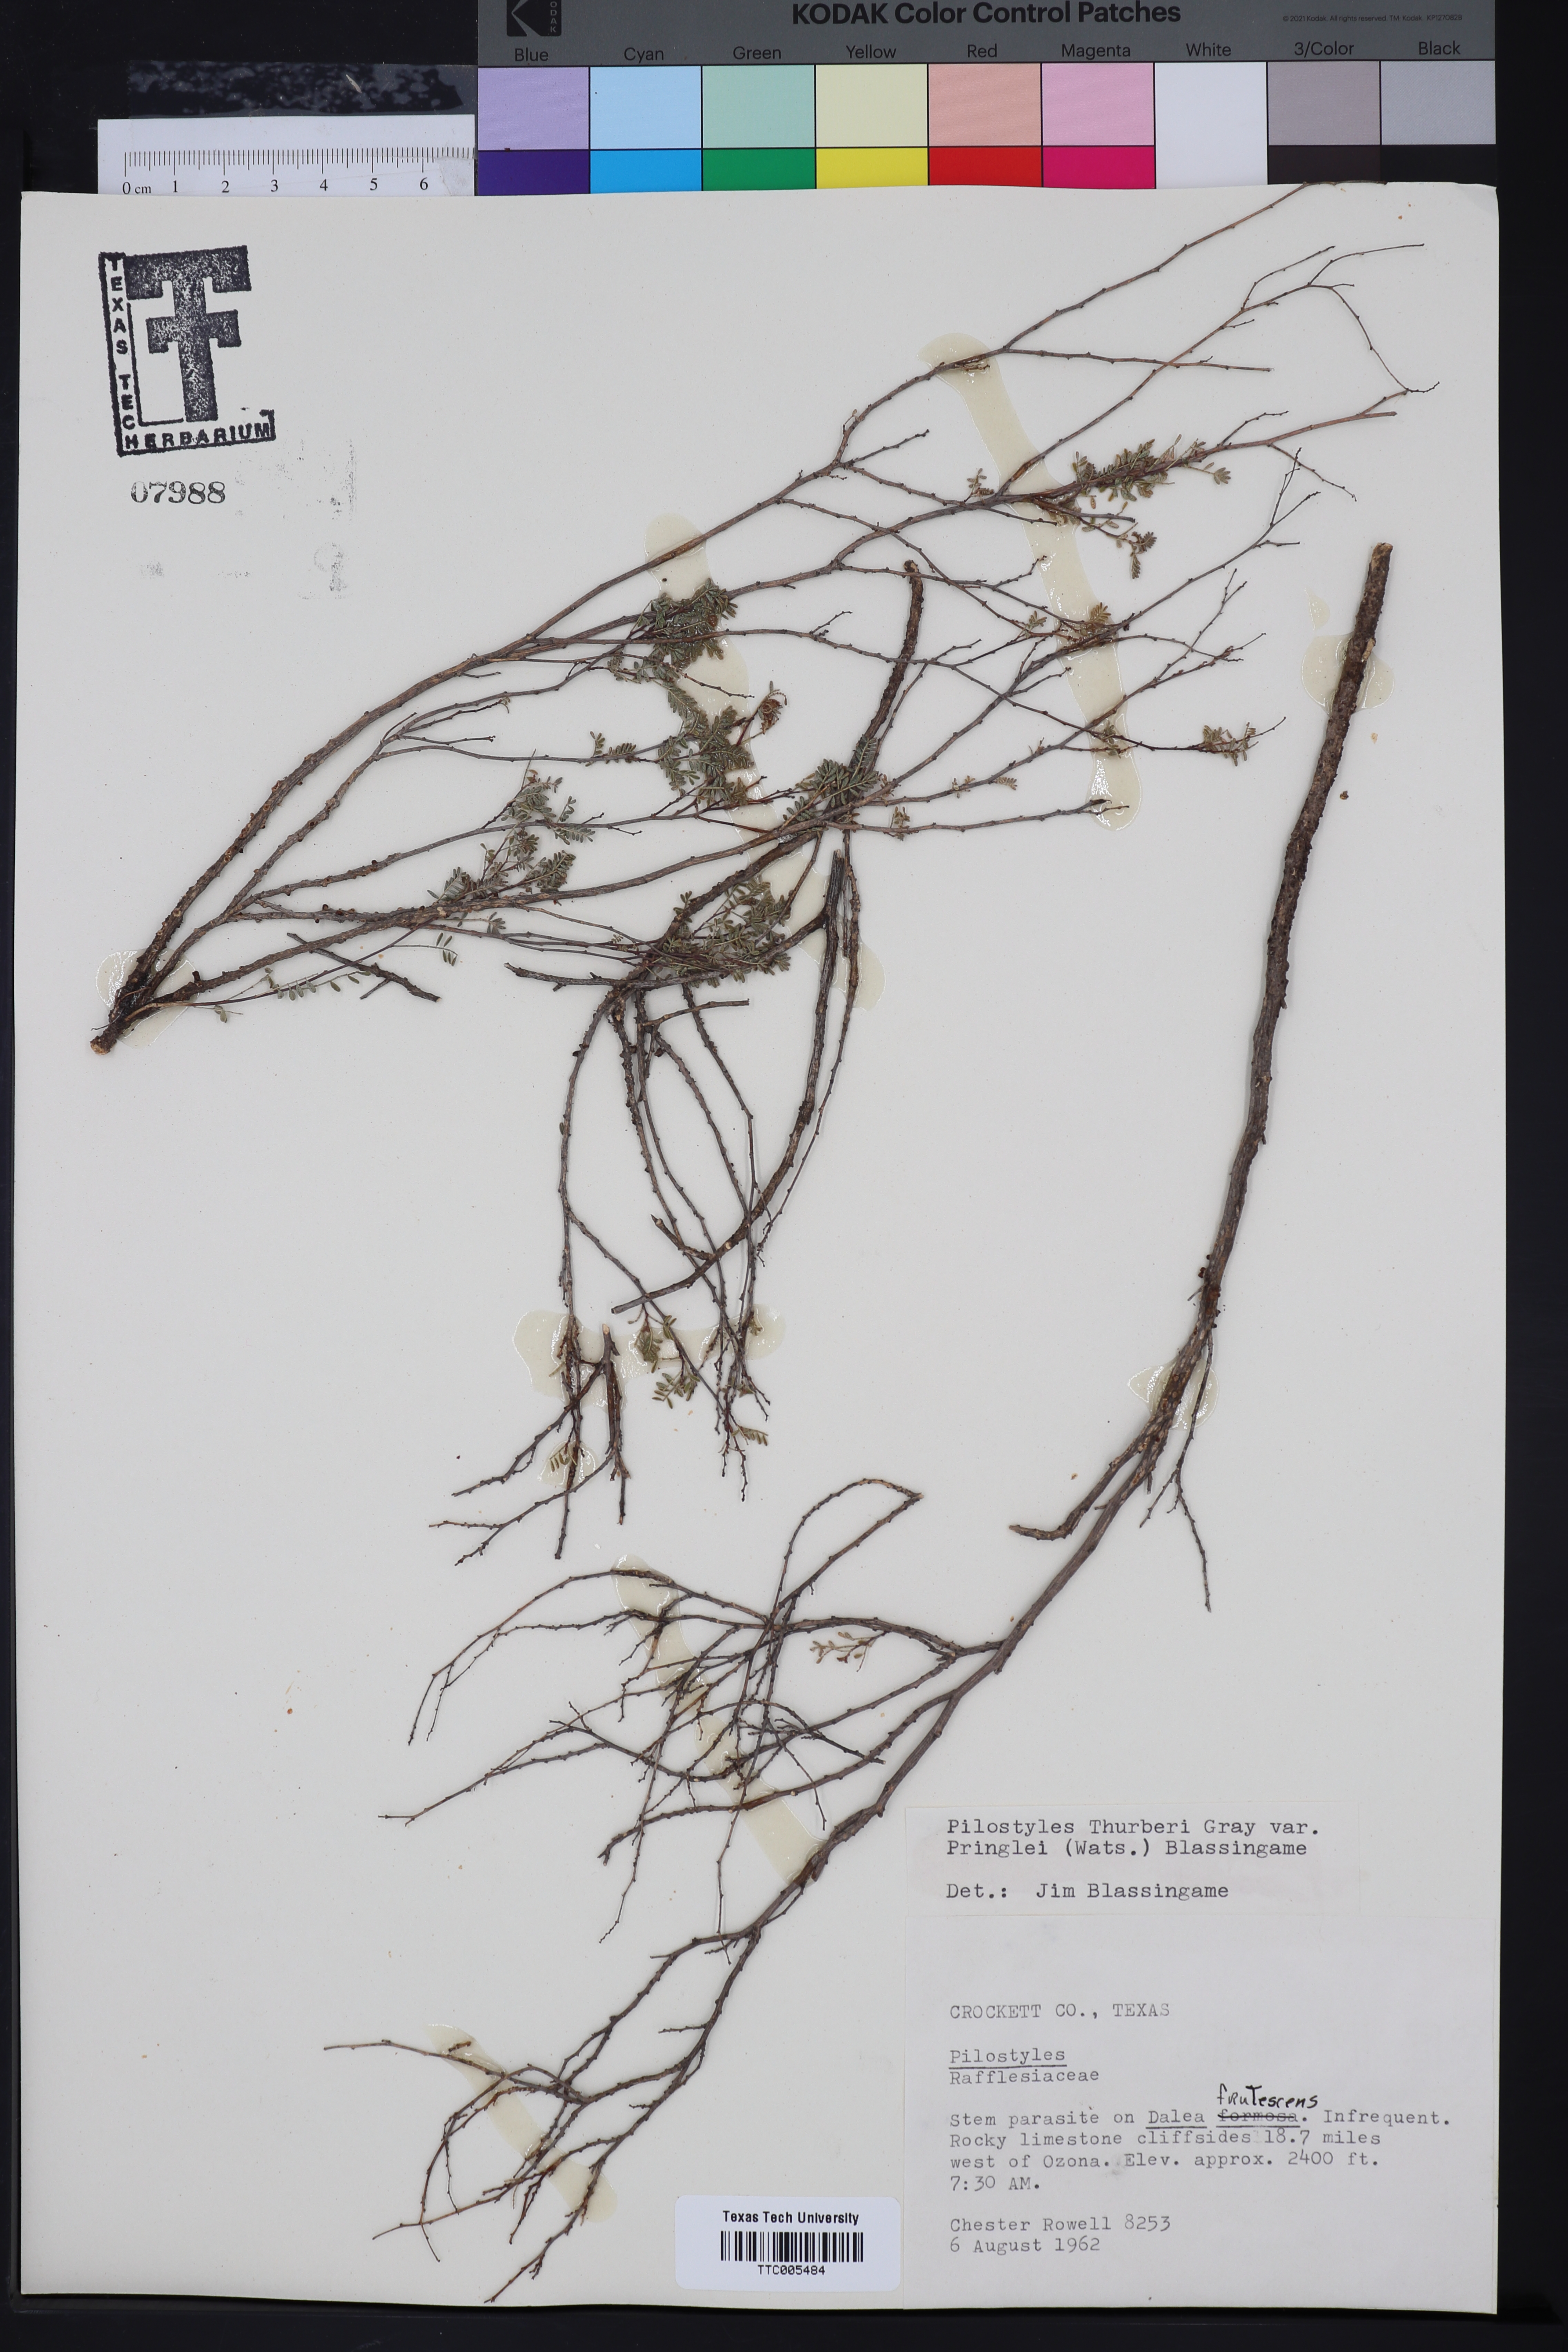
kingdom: Plantae
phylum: Tracheophyta
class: Magnoliopsida
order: Cucurbitales
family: Apodanthaceae
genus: Pilostyles
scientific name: Pilostyles
